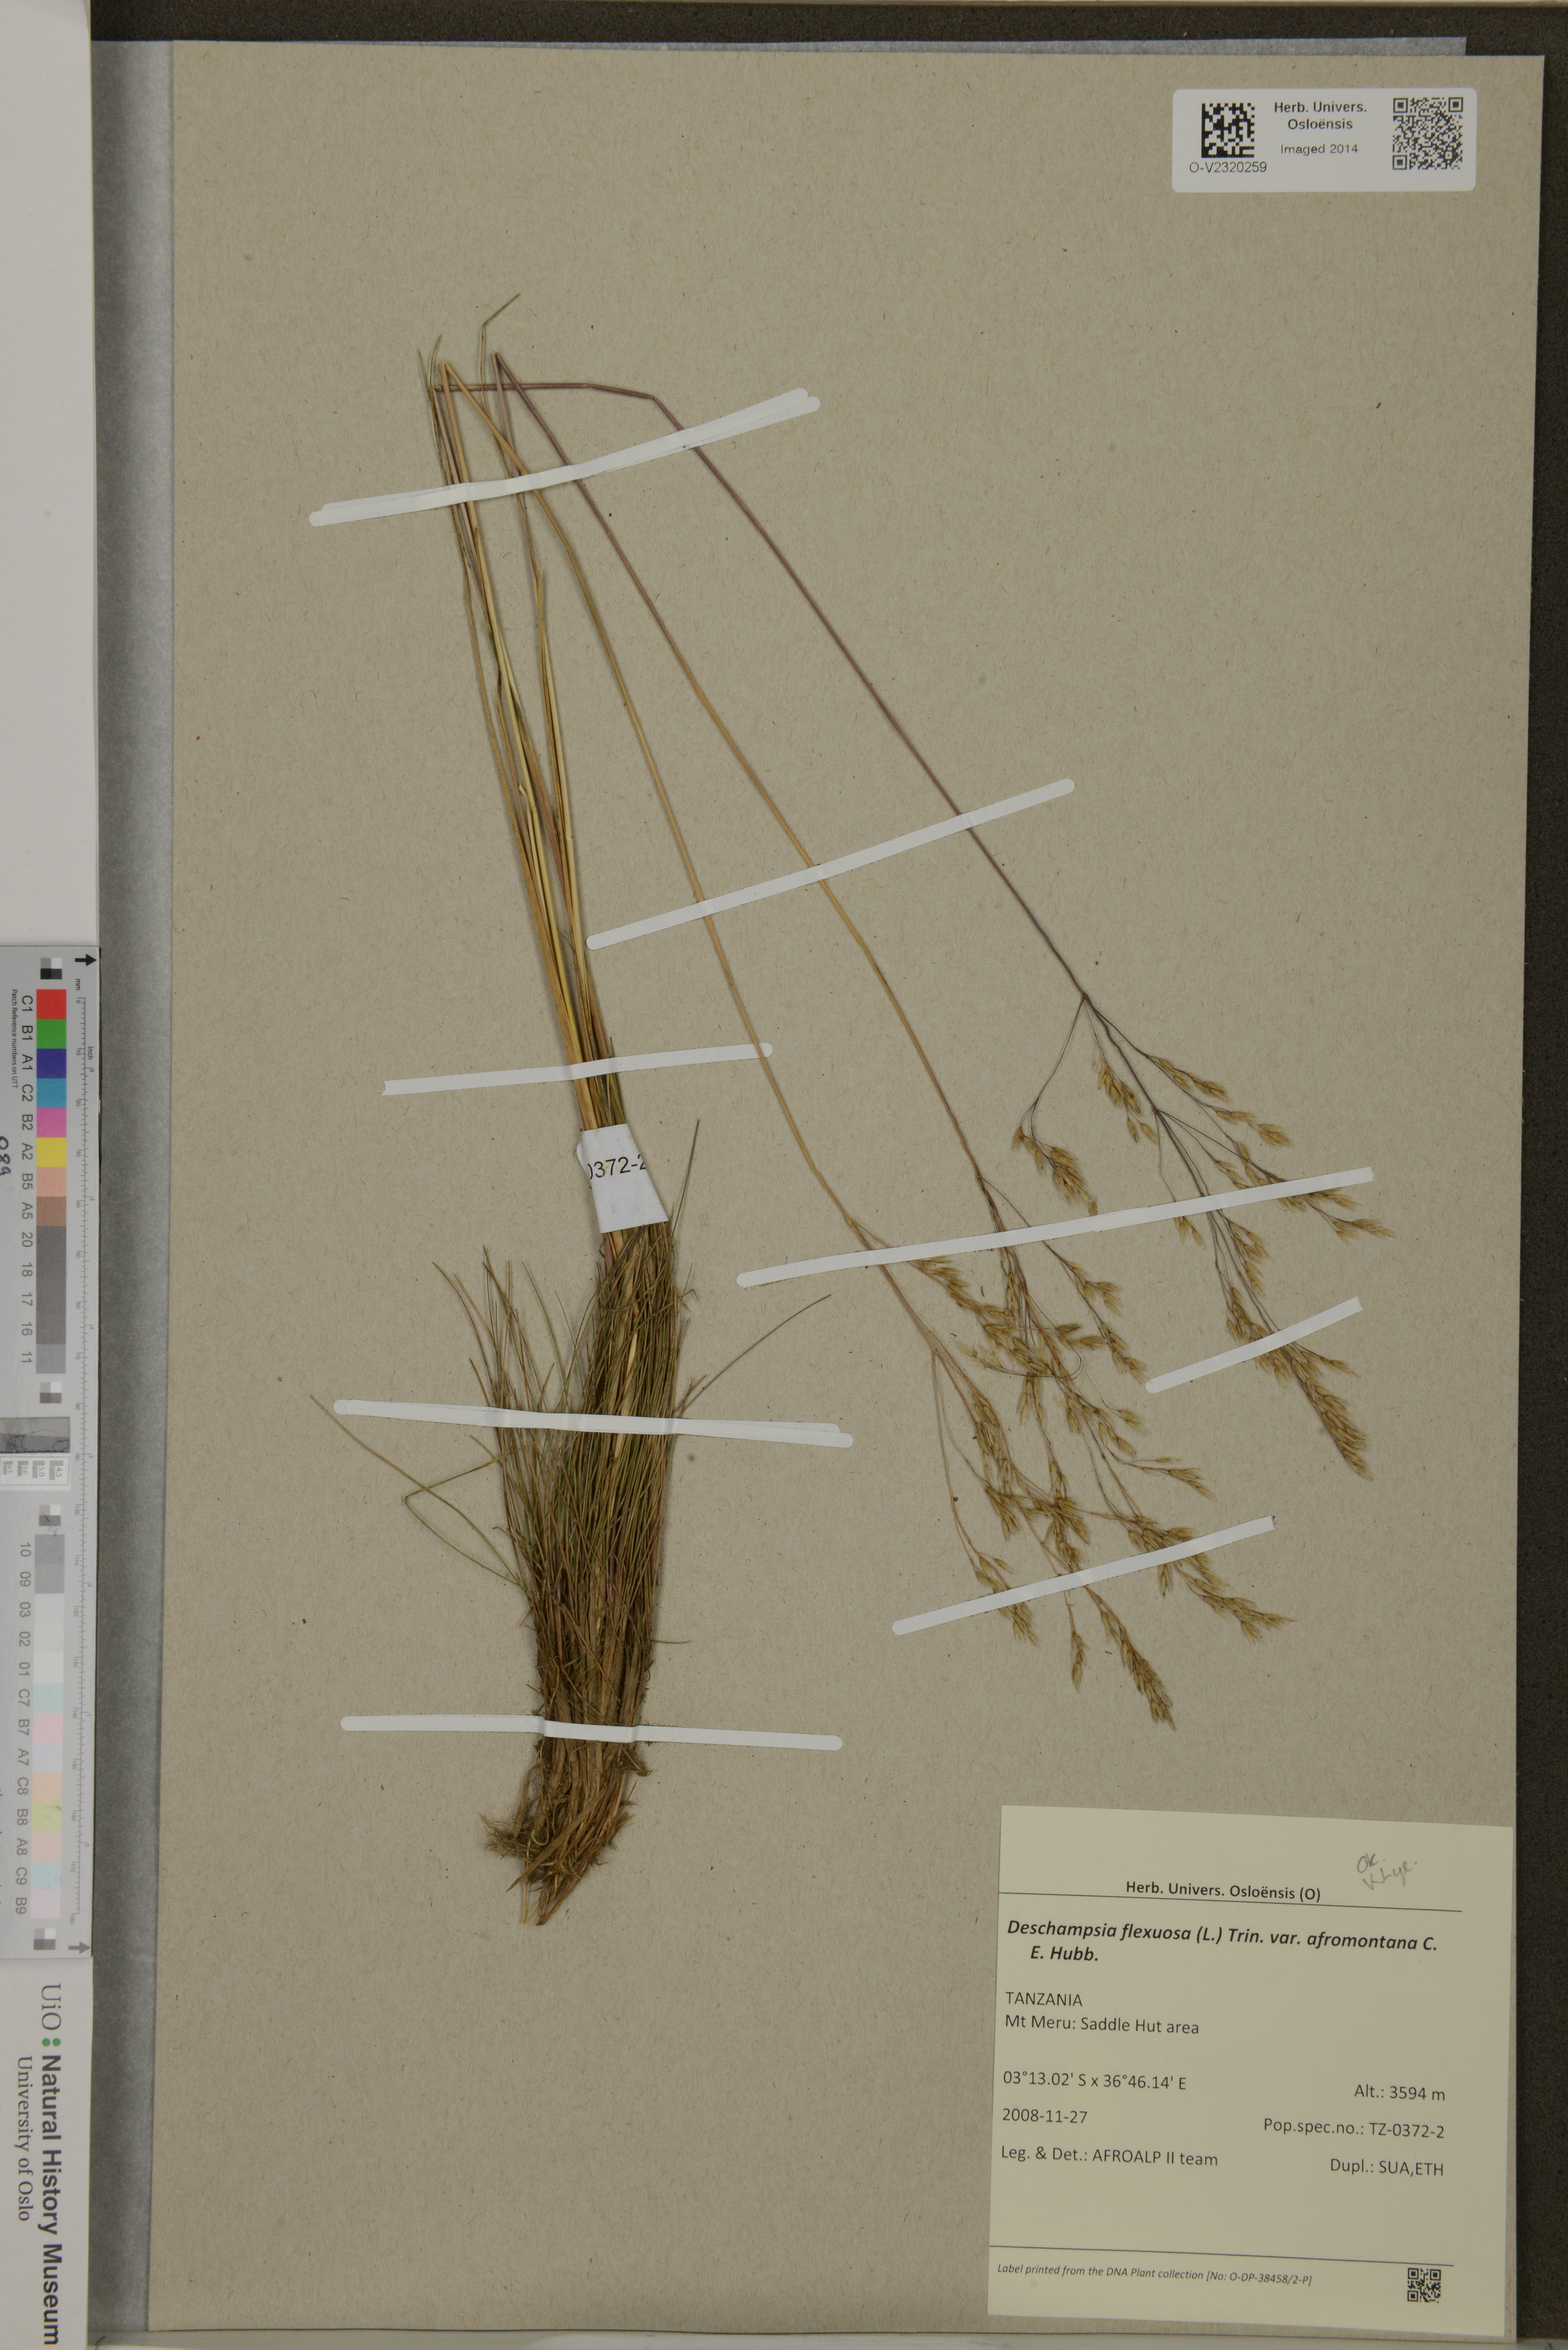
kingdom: Plantae
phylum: Tracheophyta
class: Liliopsida
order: Poales
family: Poaceae
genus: Avenella
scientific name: Avenella flexuosa
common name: Wavy hairgrass
